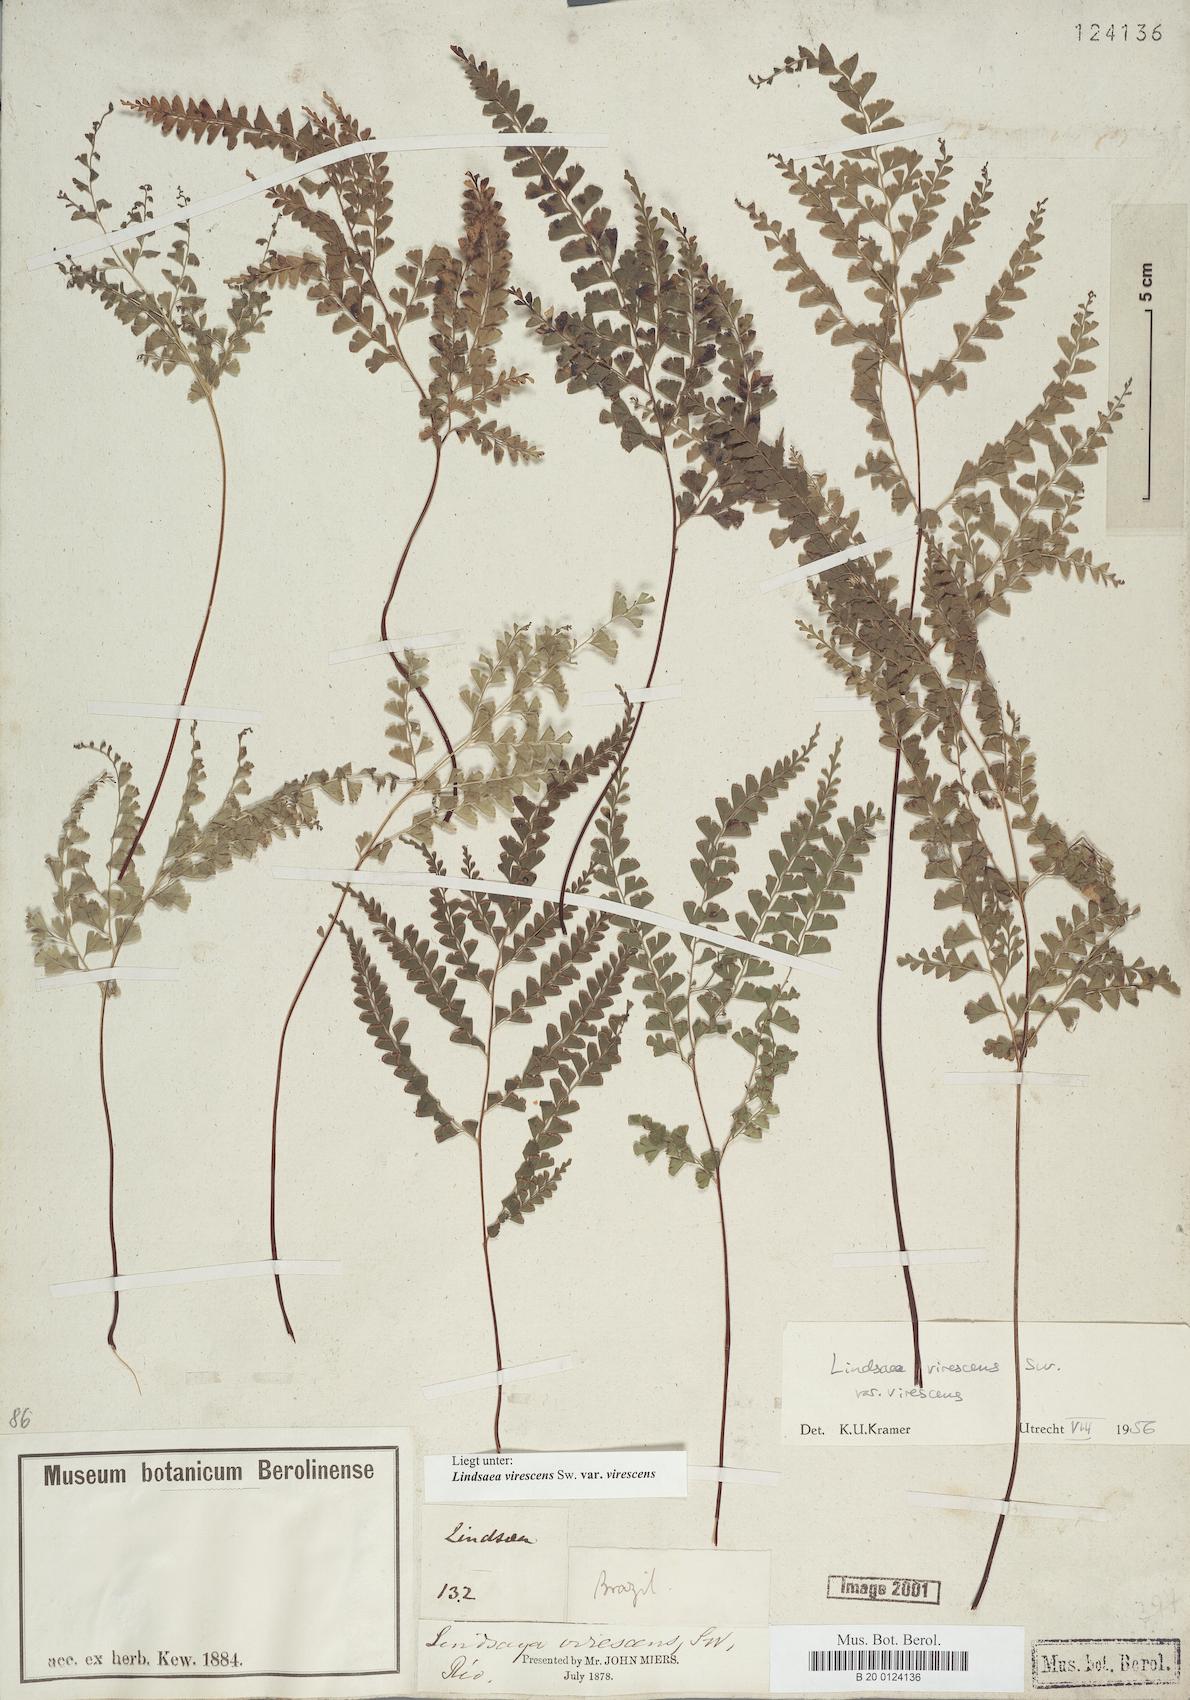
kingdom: Plantae
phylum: Tracheophyta
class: Polypodiopsida
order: Polypodiales
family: Lindsaeaceae
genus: Lindsaea
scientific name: Lindsaea virescens
